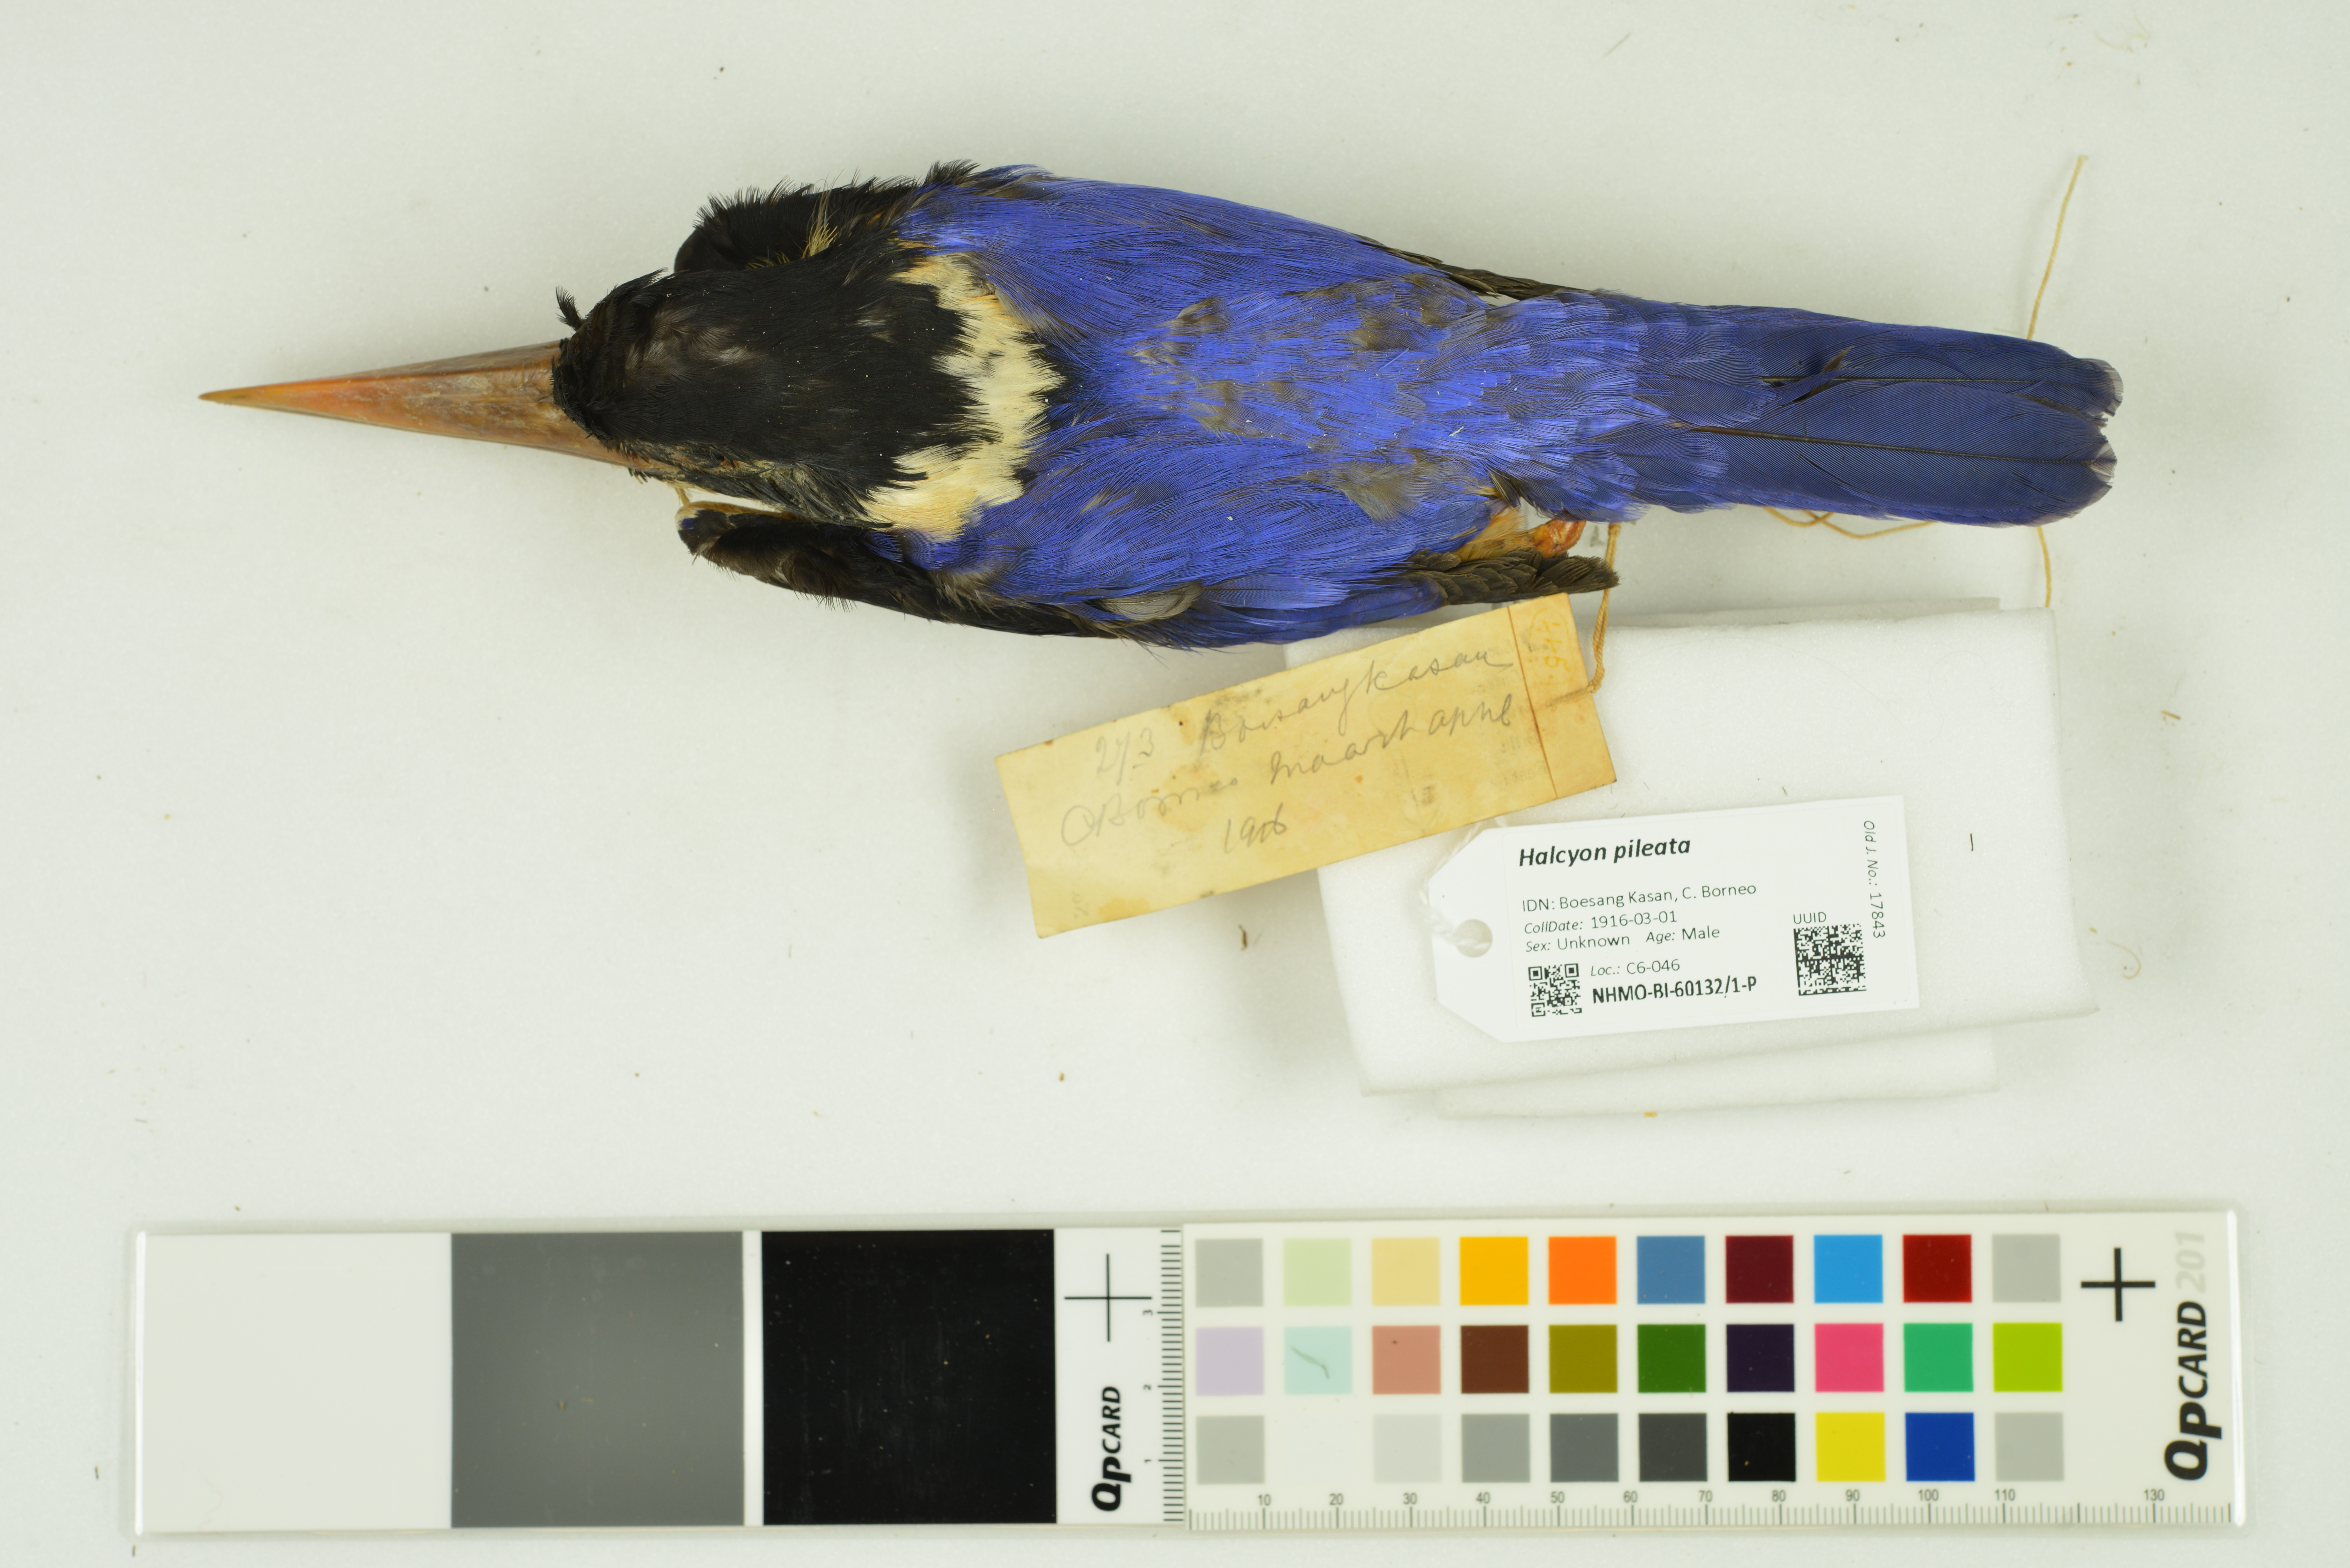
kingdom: Animalia
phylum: Chordata
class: Aves
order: Coraciiformes
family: Alcedinidae
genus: Halcyon
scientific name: Halcyon pileata
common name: Black-capped kingfisher
